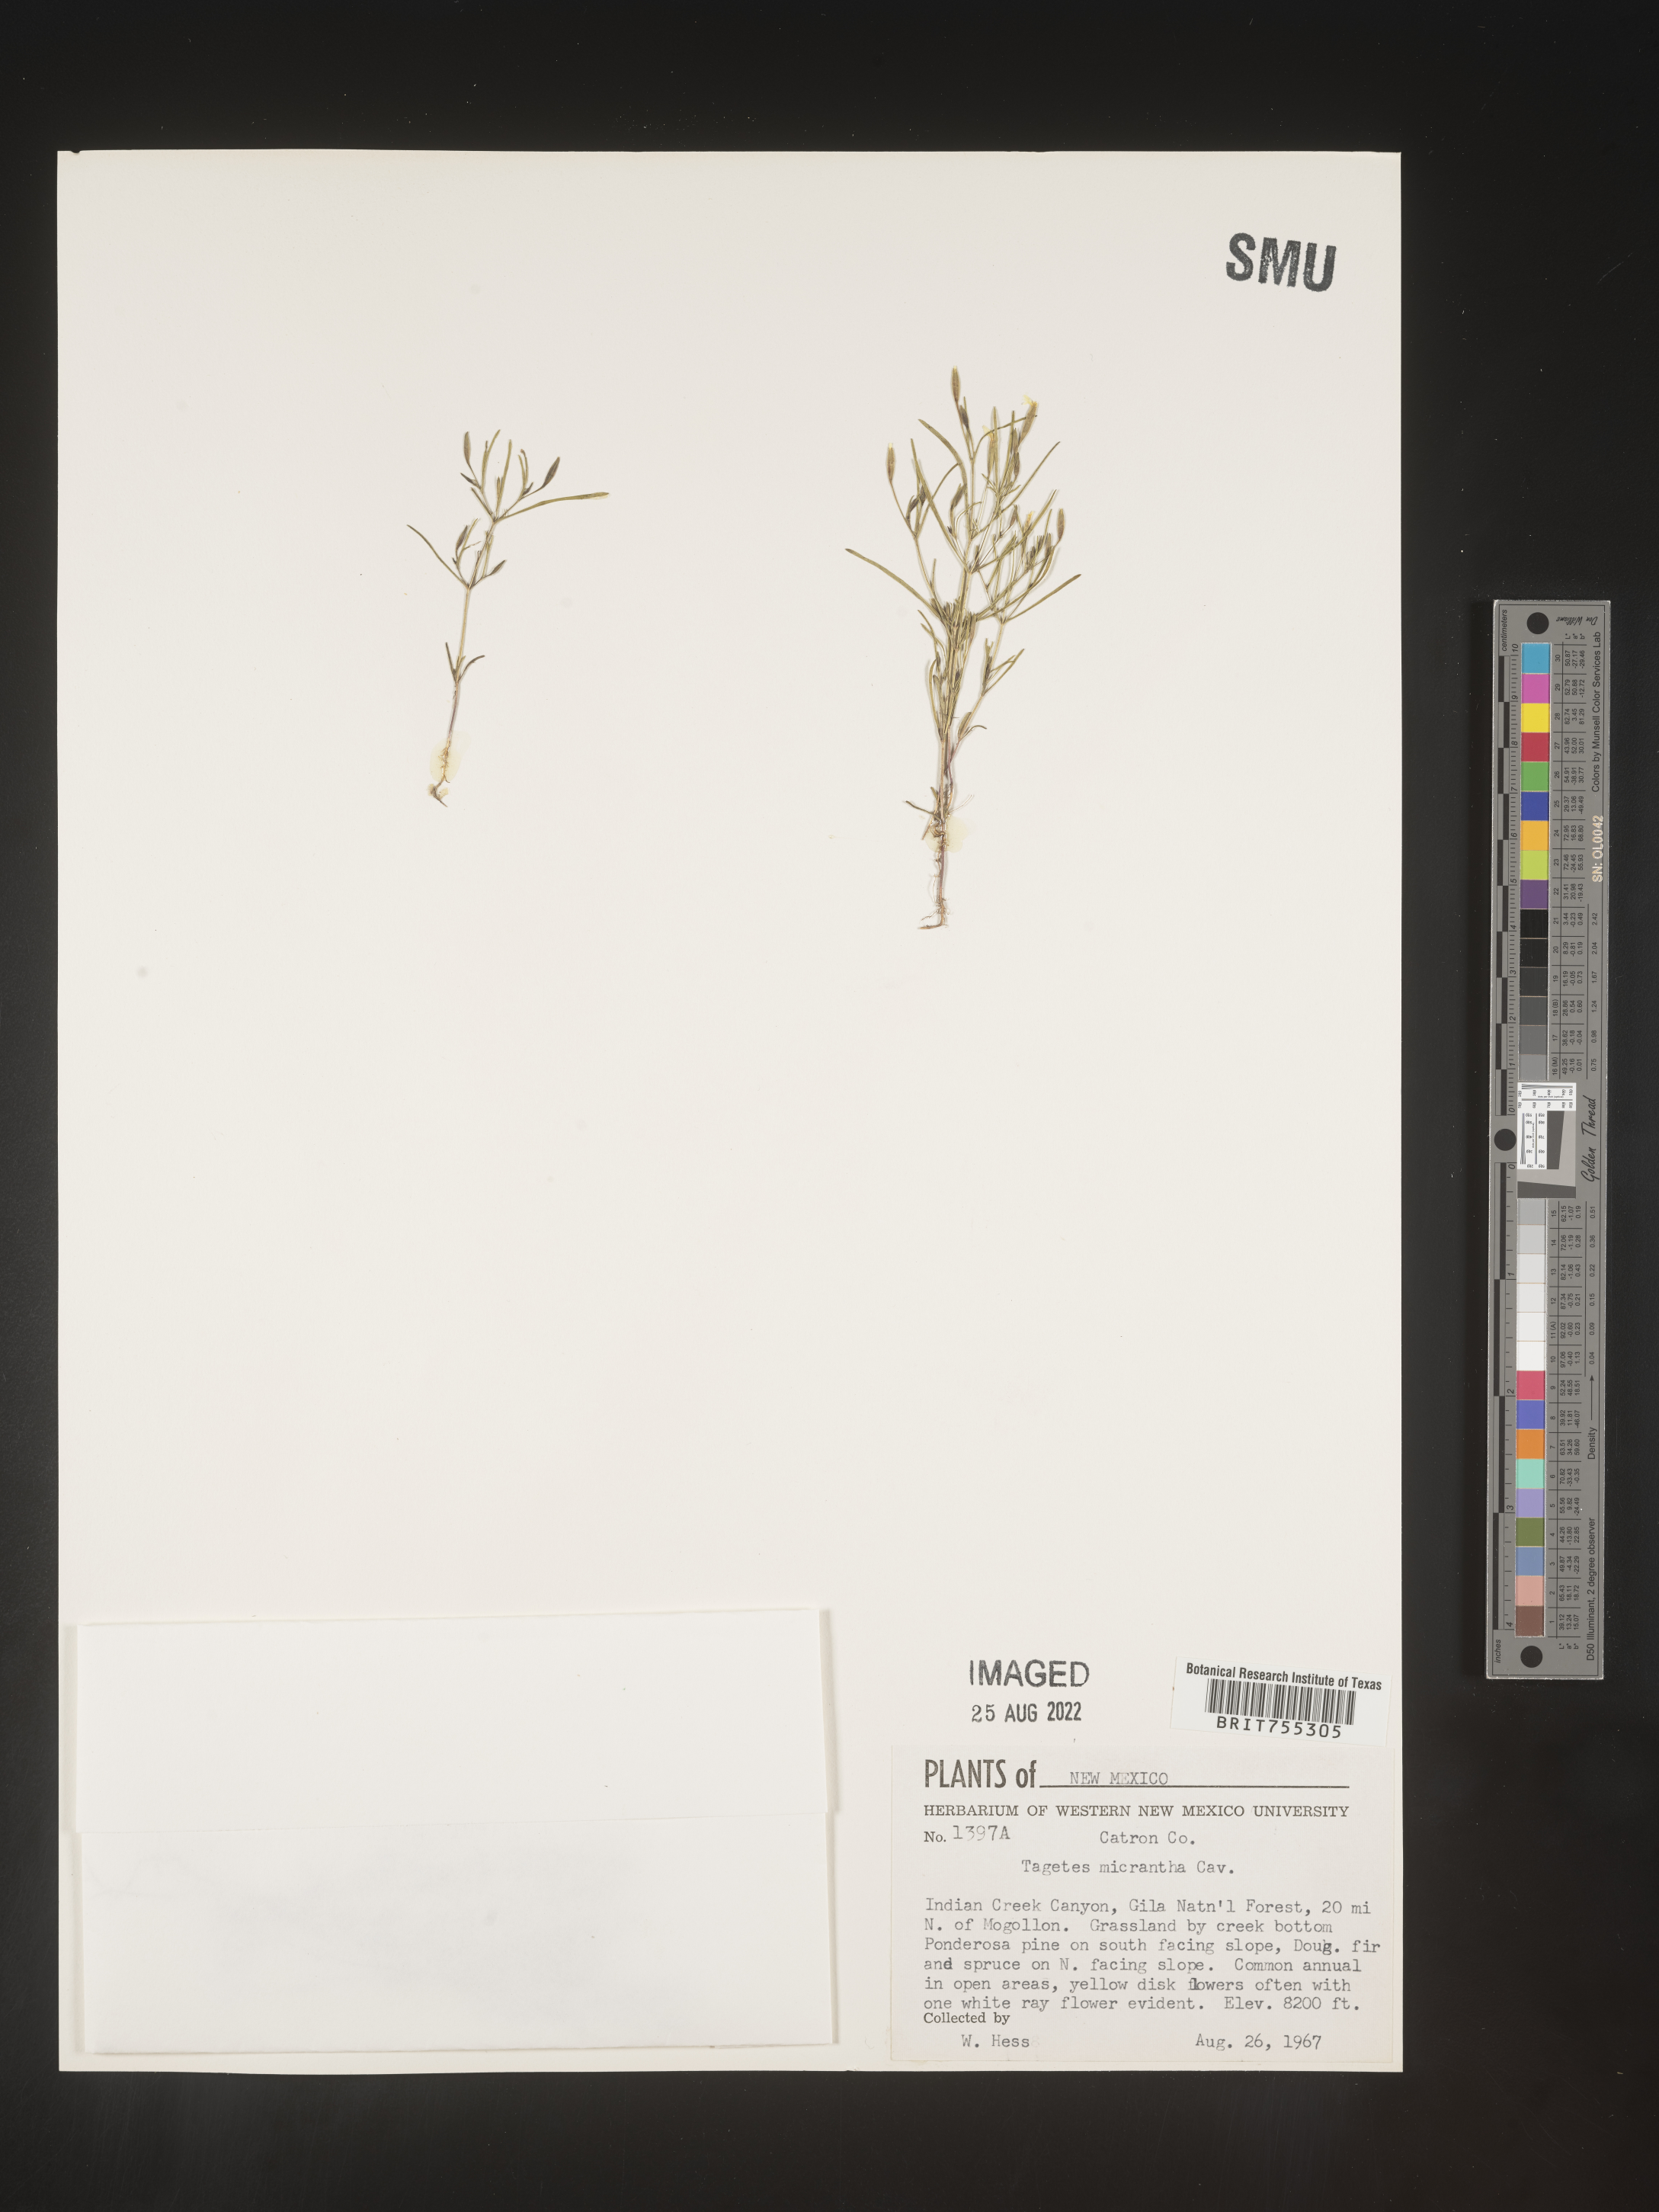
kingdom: Plantae
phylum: Tracheophyta
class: Magnoliopsida
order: Asterales
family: Asteraceae
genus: Tagetes
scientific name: Tagetes
